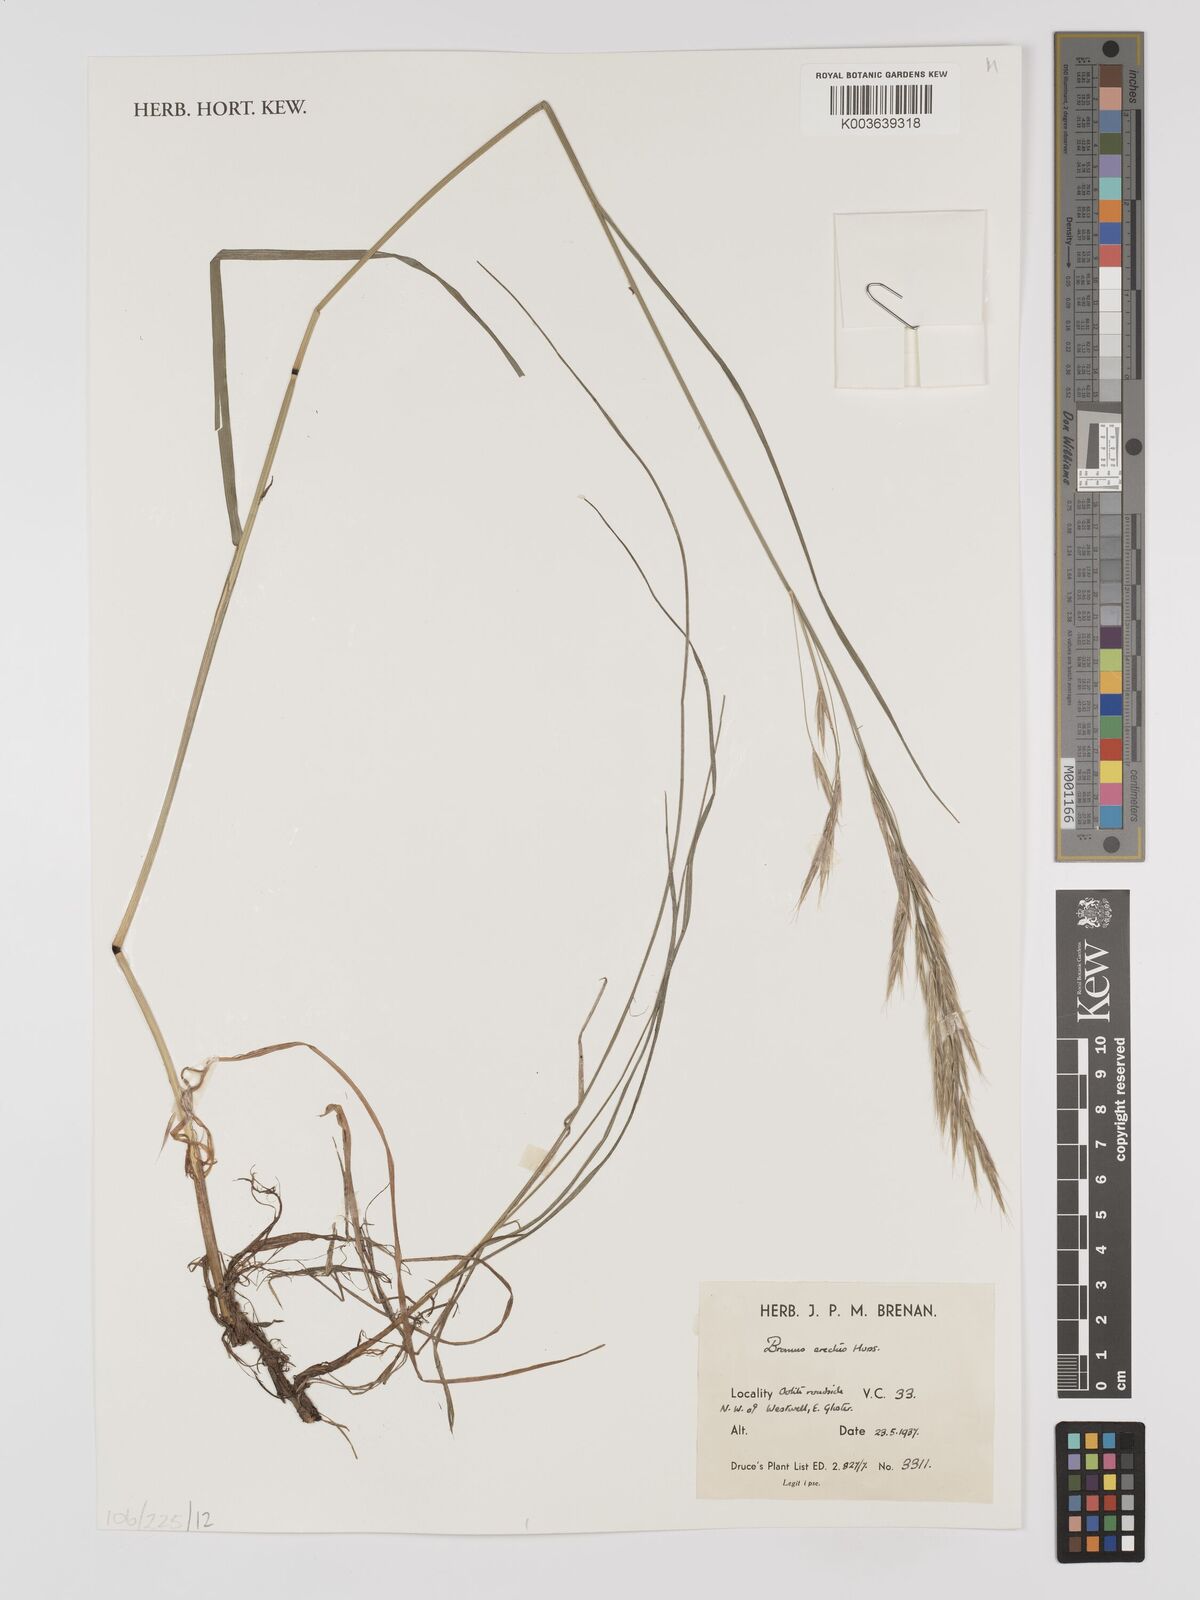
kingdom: Plantae
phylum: Tracheophyta
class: Liliopsida
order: Poales
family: Poaceae
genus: Bromus
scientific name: Bromus erectus
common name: Erect brome
